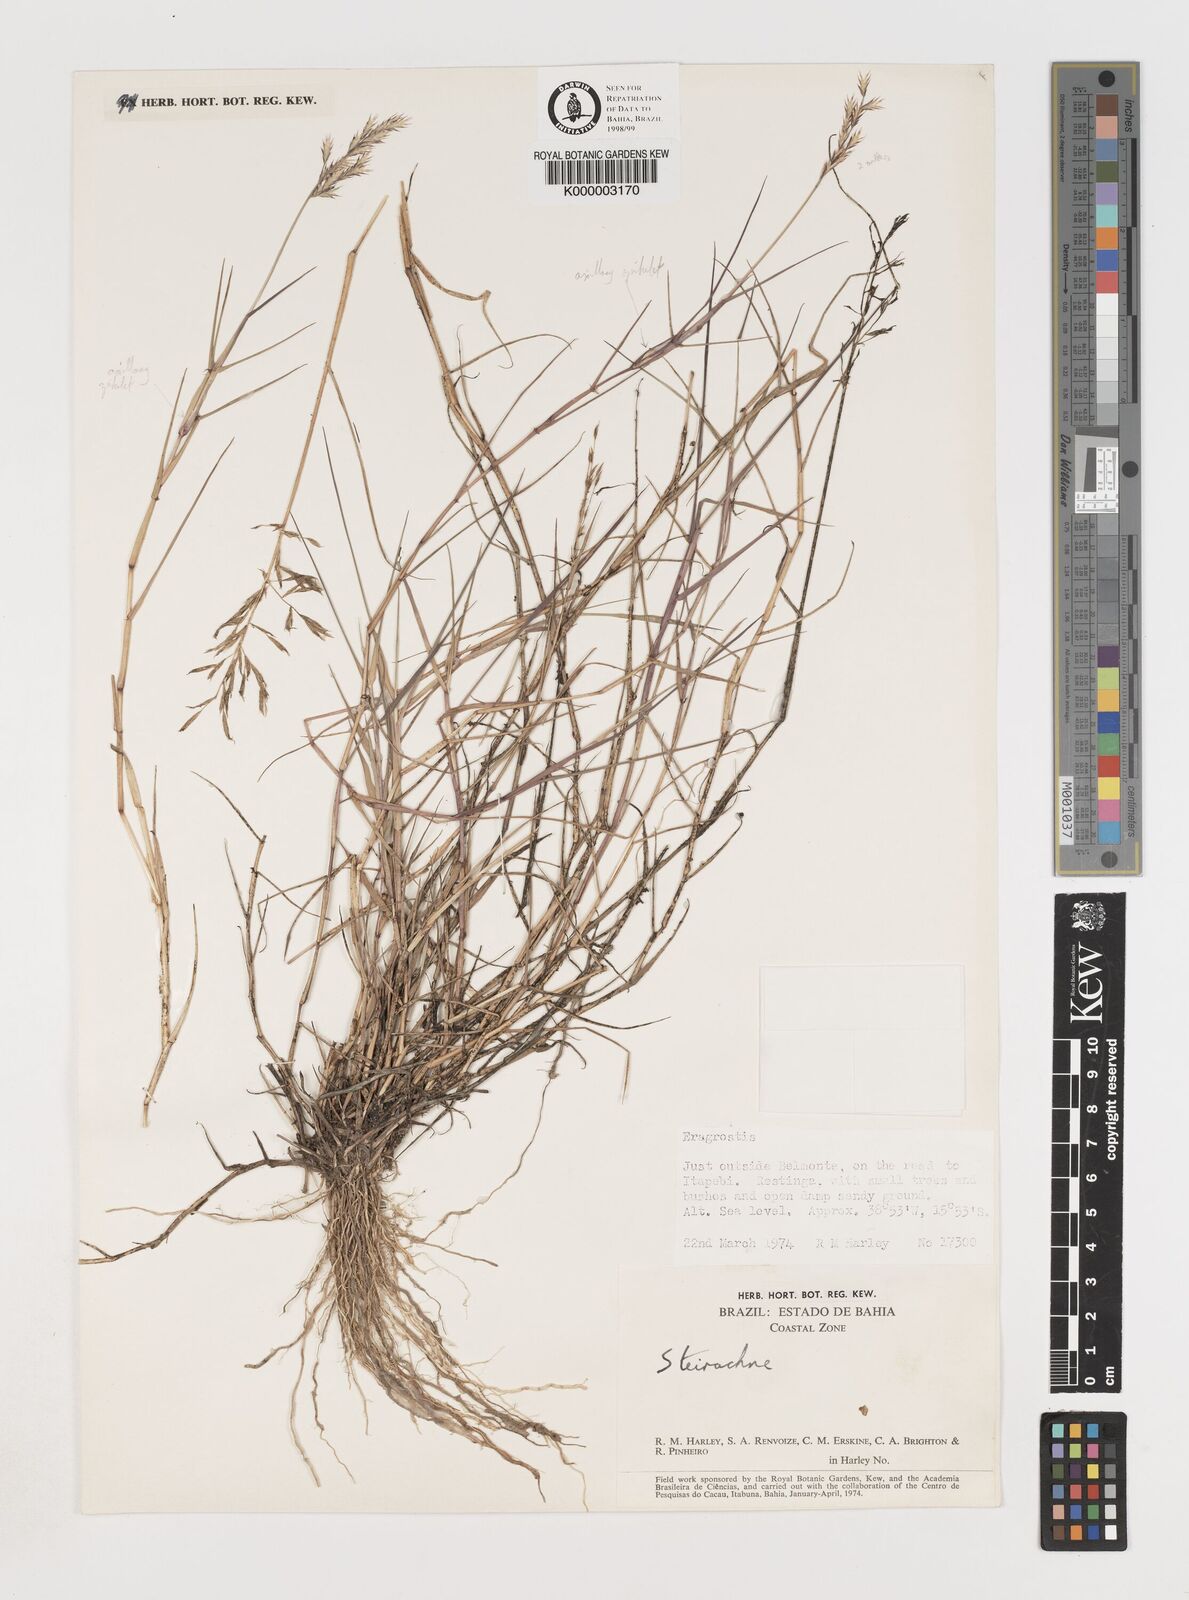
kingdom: Plantae
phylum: Tracheophyta
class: Liliopsida
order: Poales
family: Poaceae
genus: Steirachne
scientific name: Steirachne barbata
